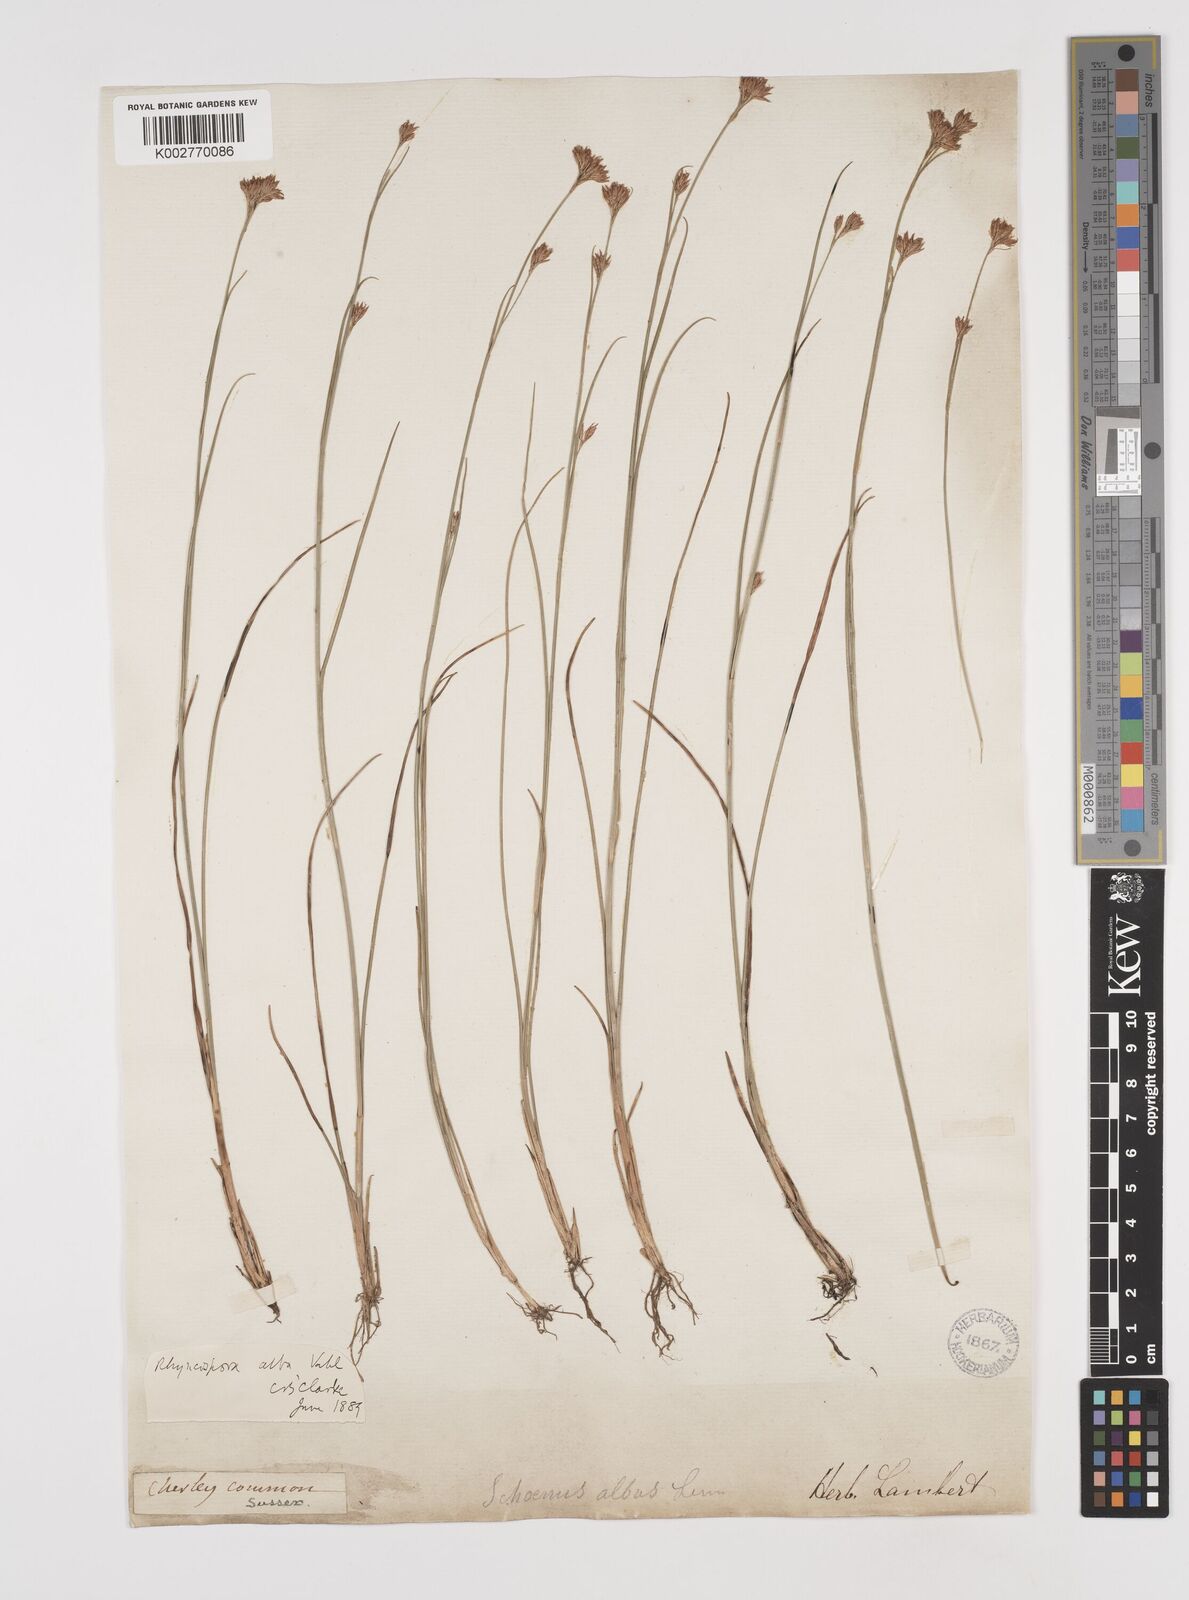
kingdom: Plantae
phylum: Tracheophyta
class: Liliopsida
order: Poales
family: Cyperaceae
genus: Rhynchospora
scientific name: Rhynchospora alba
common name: White beak-sedge
